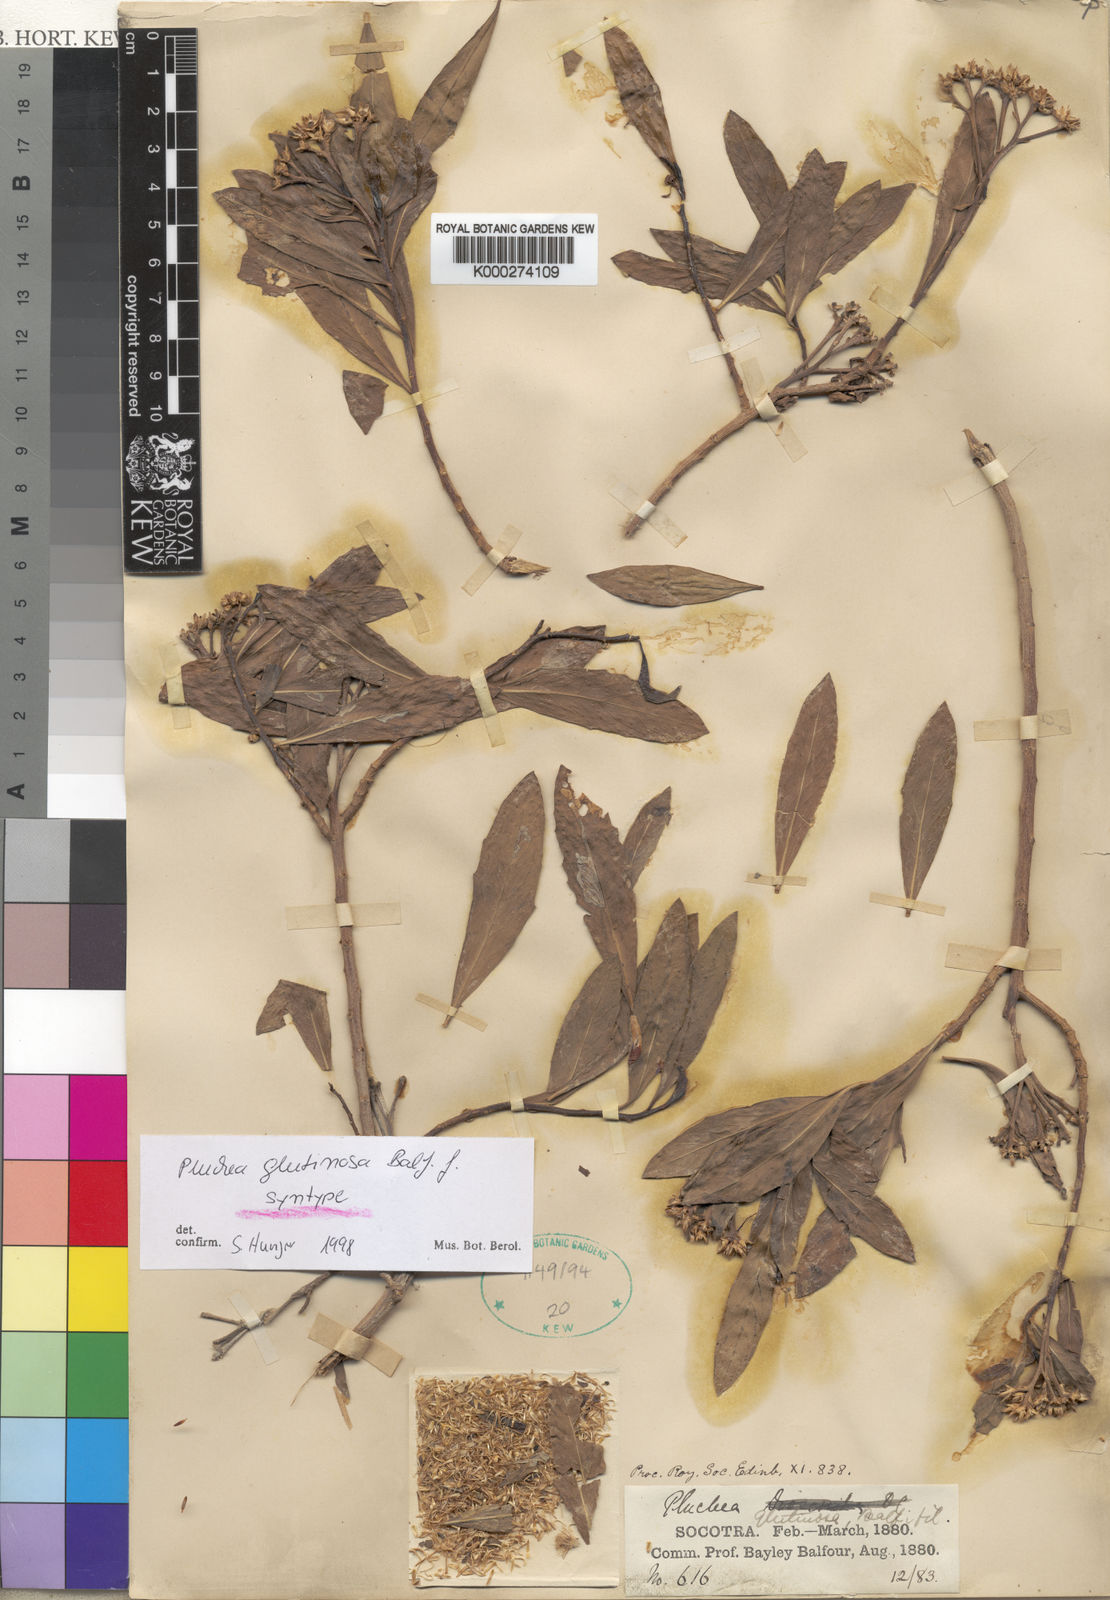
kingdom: Plantae
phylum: Tracheophyta
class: Magnoliopsida
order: Asterales
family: Asteraceae
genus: Pluchea
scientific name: Pluchea glutinosa
